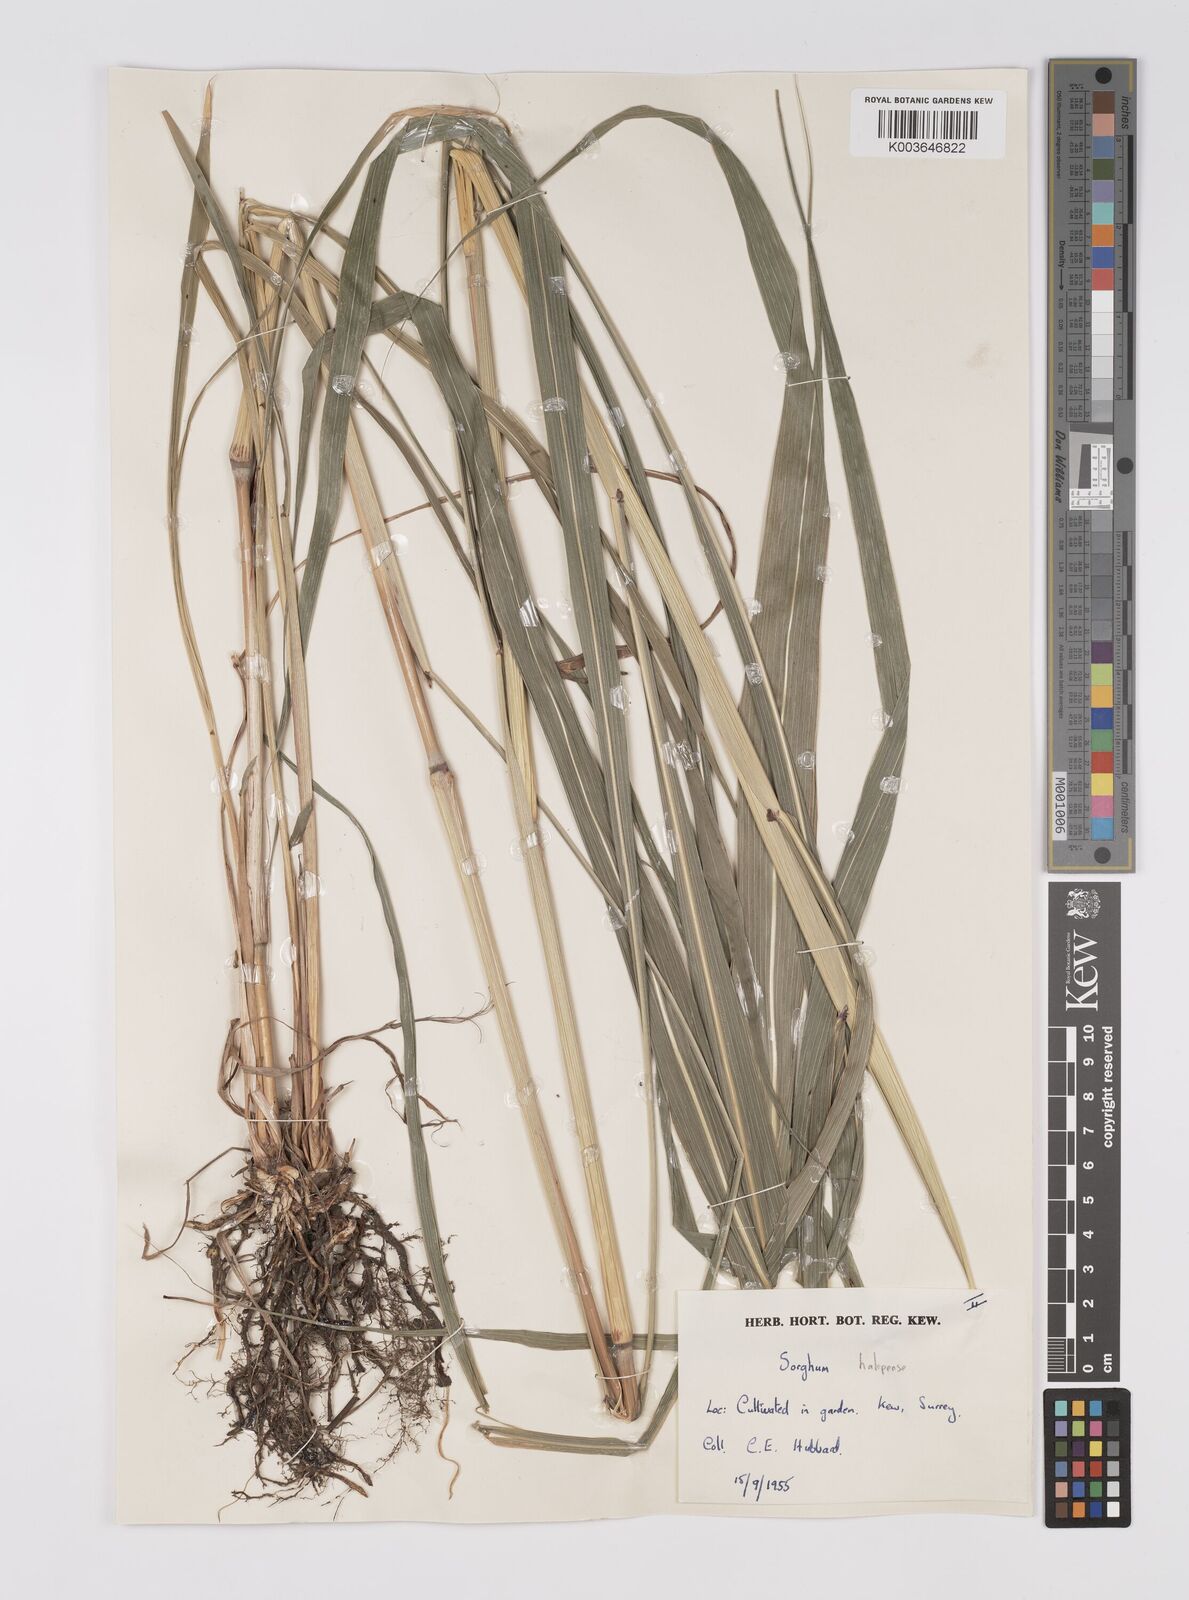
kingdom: Plantae
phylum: Tracheophyta
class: Liliopsida
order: Poales
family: Poaceae
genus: Sorghum
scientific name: Sorghum halepense
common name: Johnson-grass
